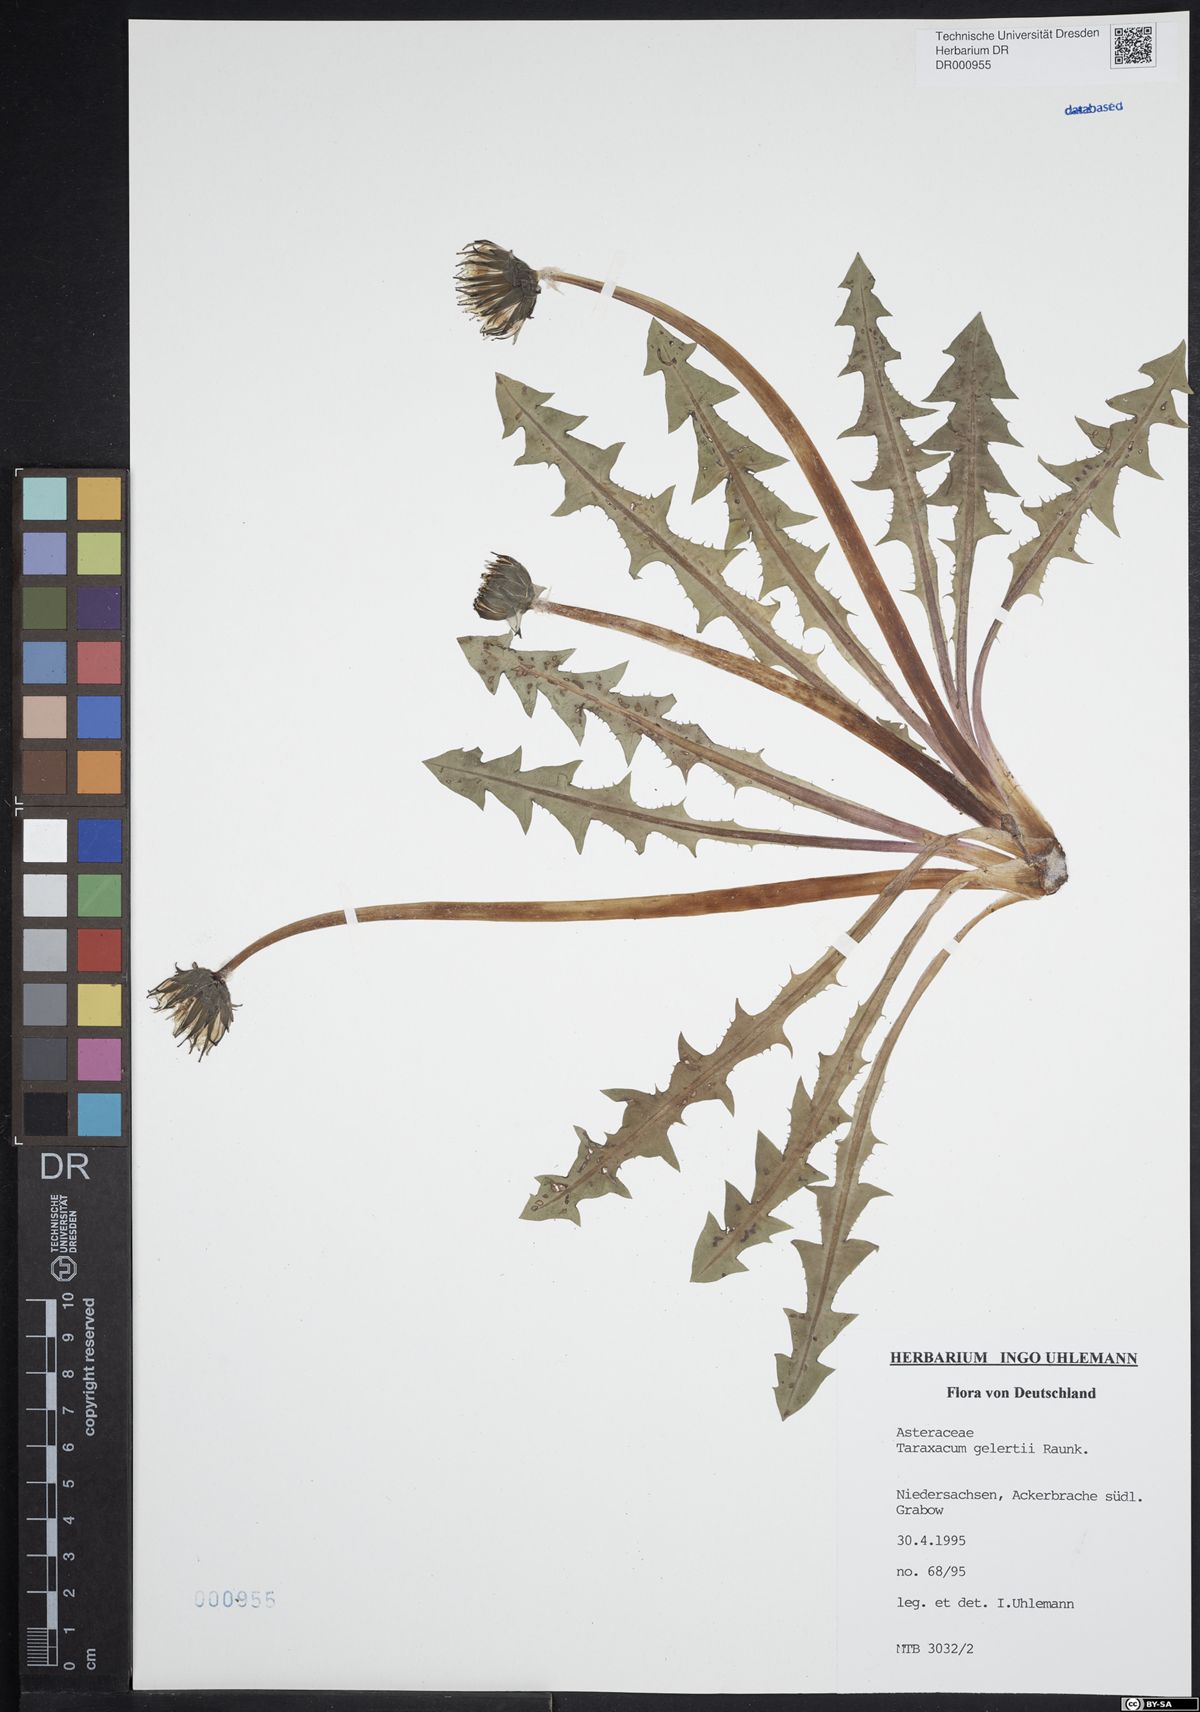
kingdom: Plantae
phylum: Tracheophyta
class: Magnoliopsida
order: Asterales
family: Asteraceae
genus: Taraxacum
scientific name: Taraxacum gelertii
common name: Gelert's dandelion
